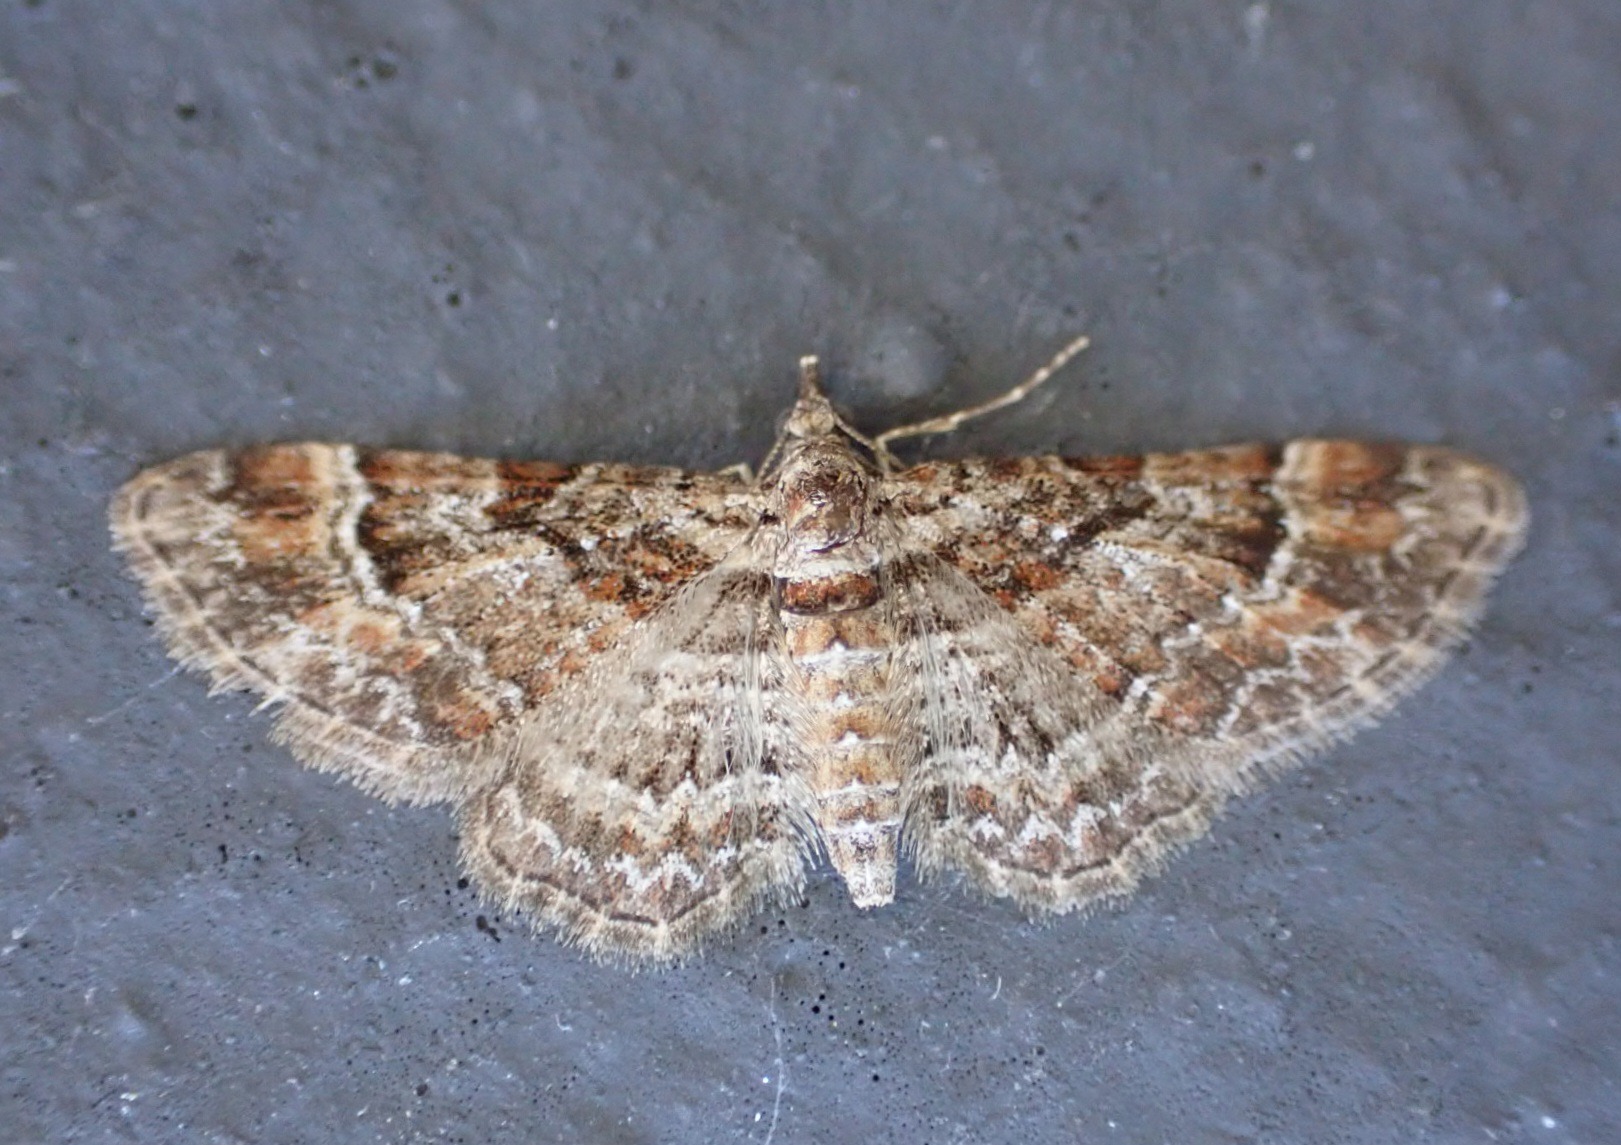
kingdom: Animalia
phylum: Arthropoda
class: Insecta
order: Lepidoptera
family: Geometridae
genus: Gymnoscelis
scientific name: Gymnoscelis rufifasciata
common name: Rødbåndet dværgmåler
